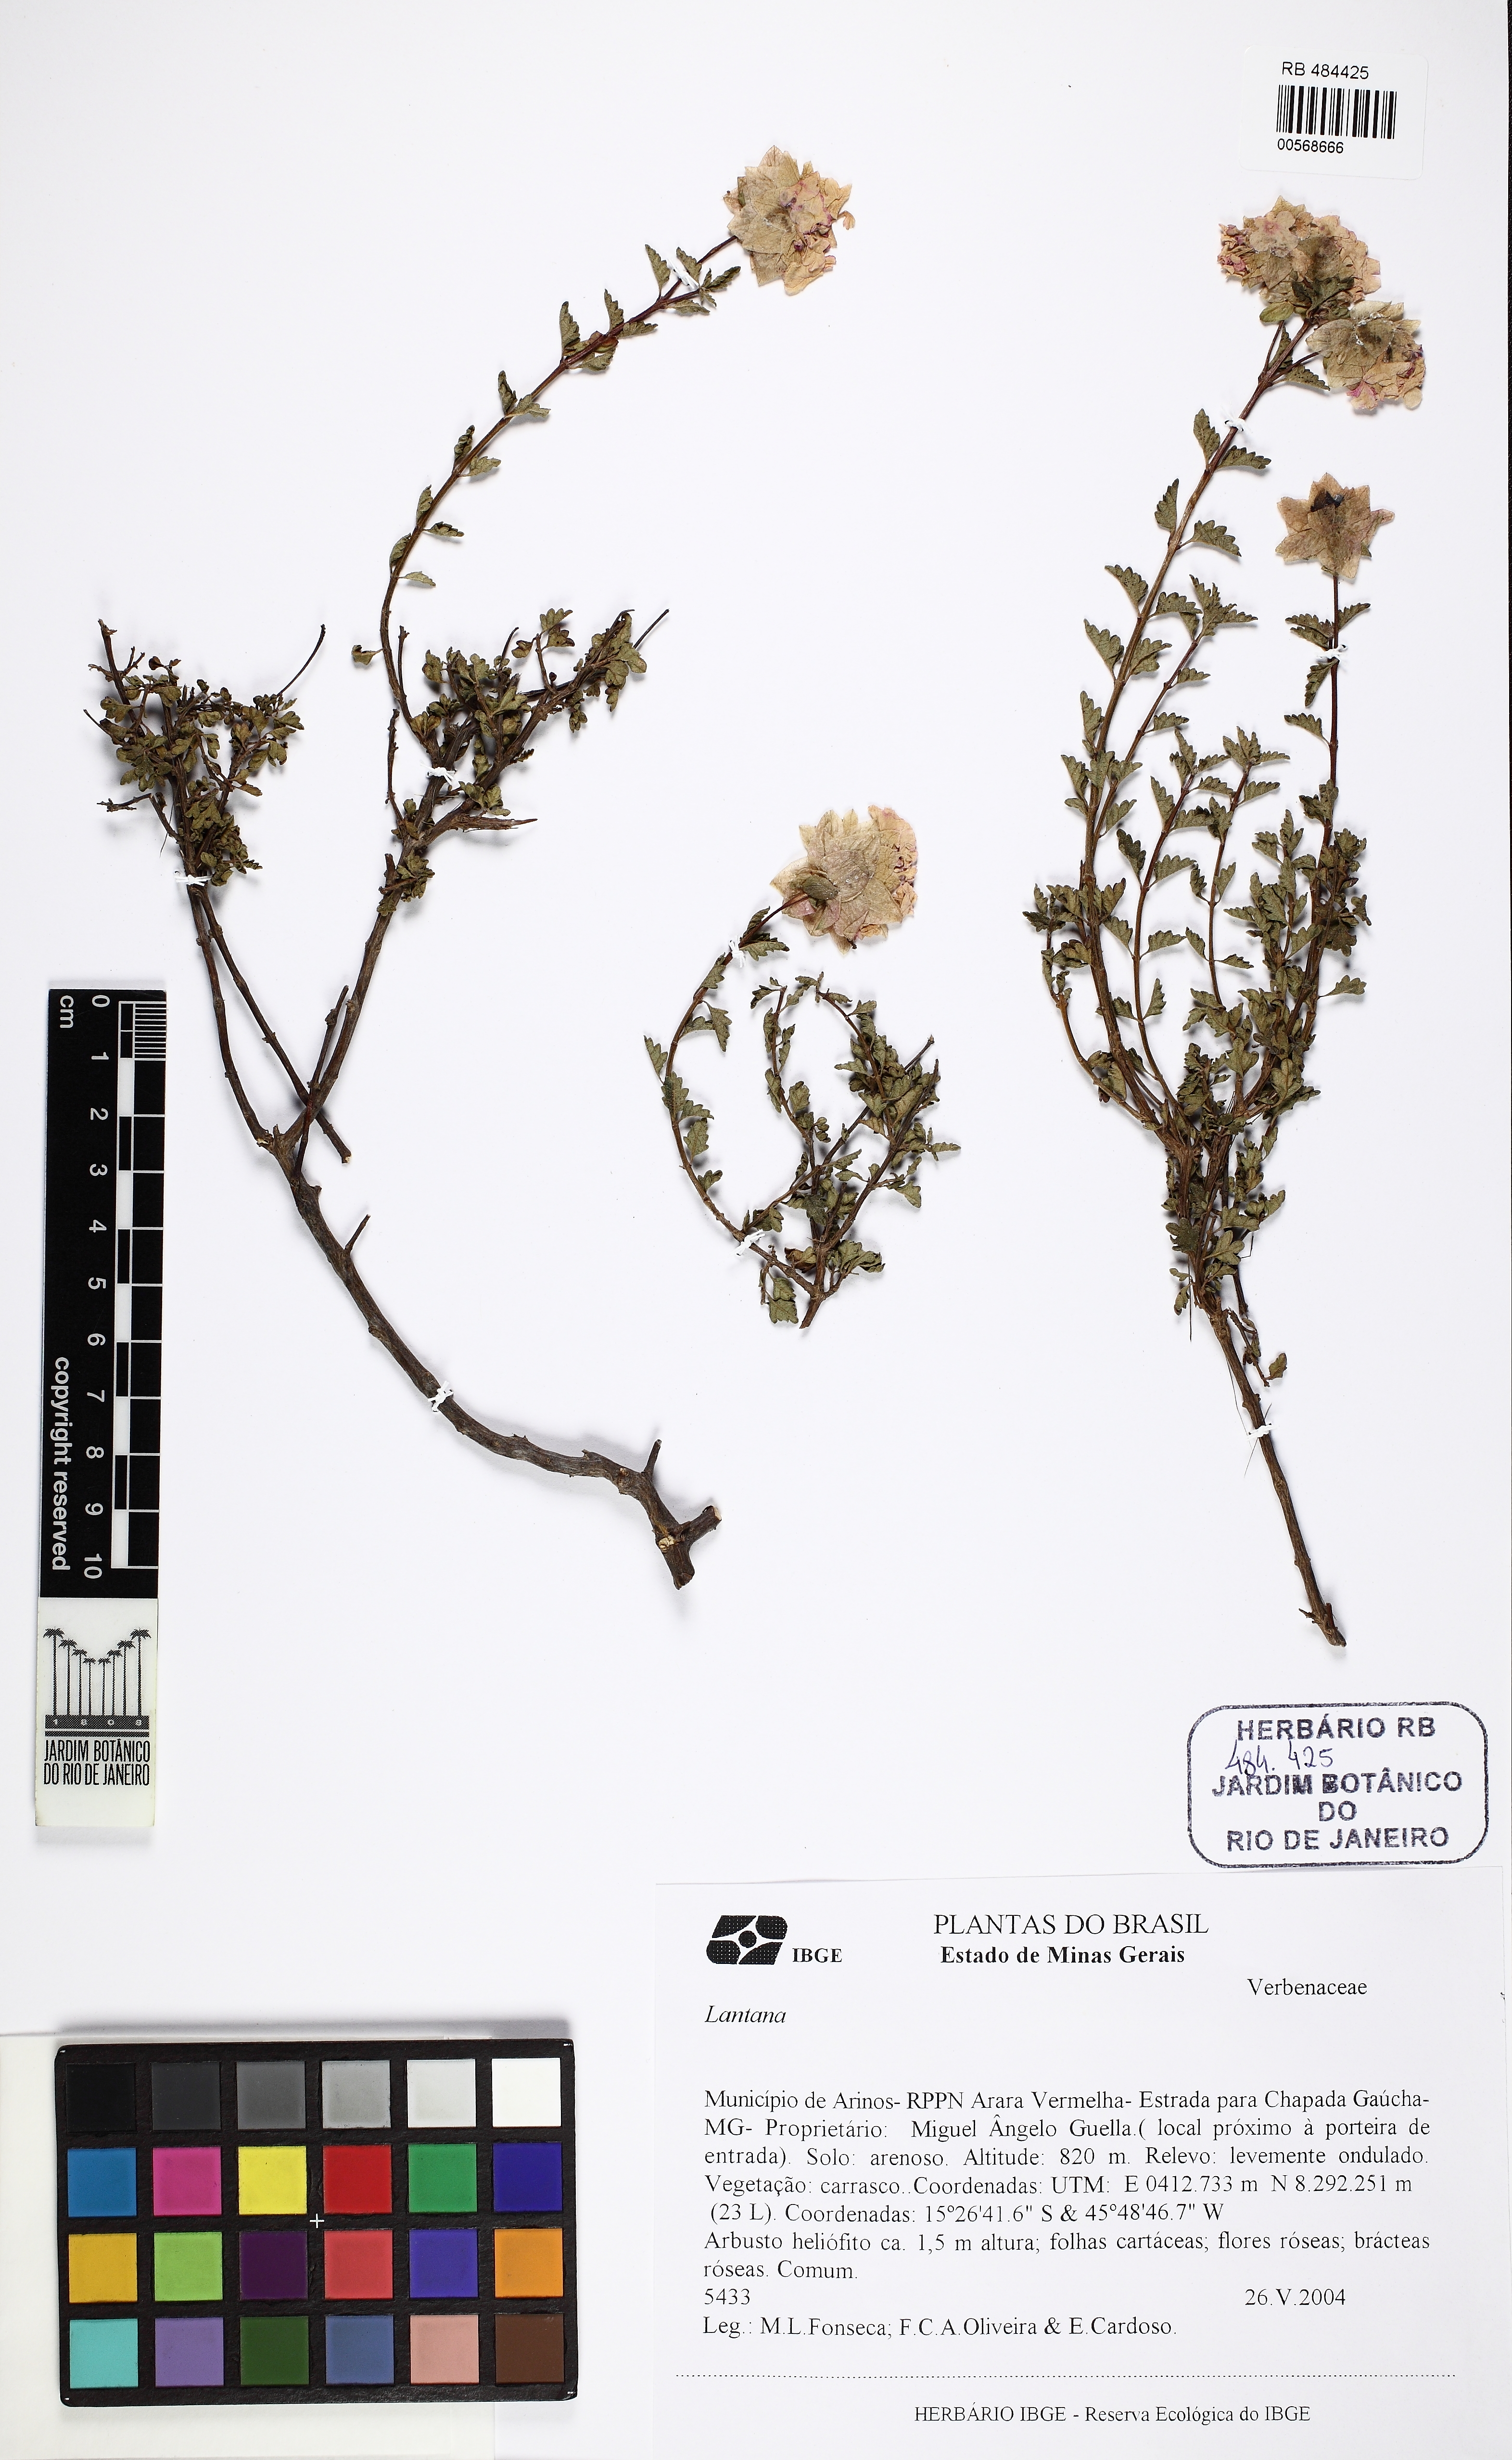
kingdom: Plantae
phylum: Tracheophyta
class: Magnoliopsida
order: Lamiales
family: Verbenaceae
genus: Lantana
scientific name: Lantana
